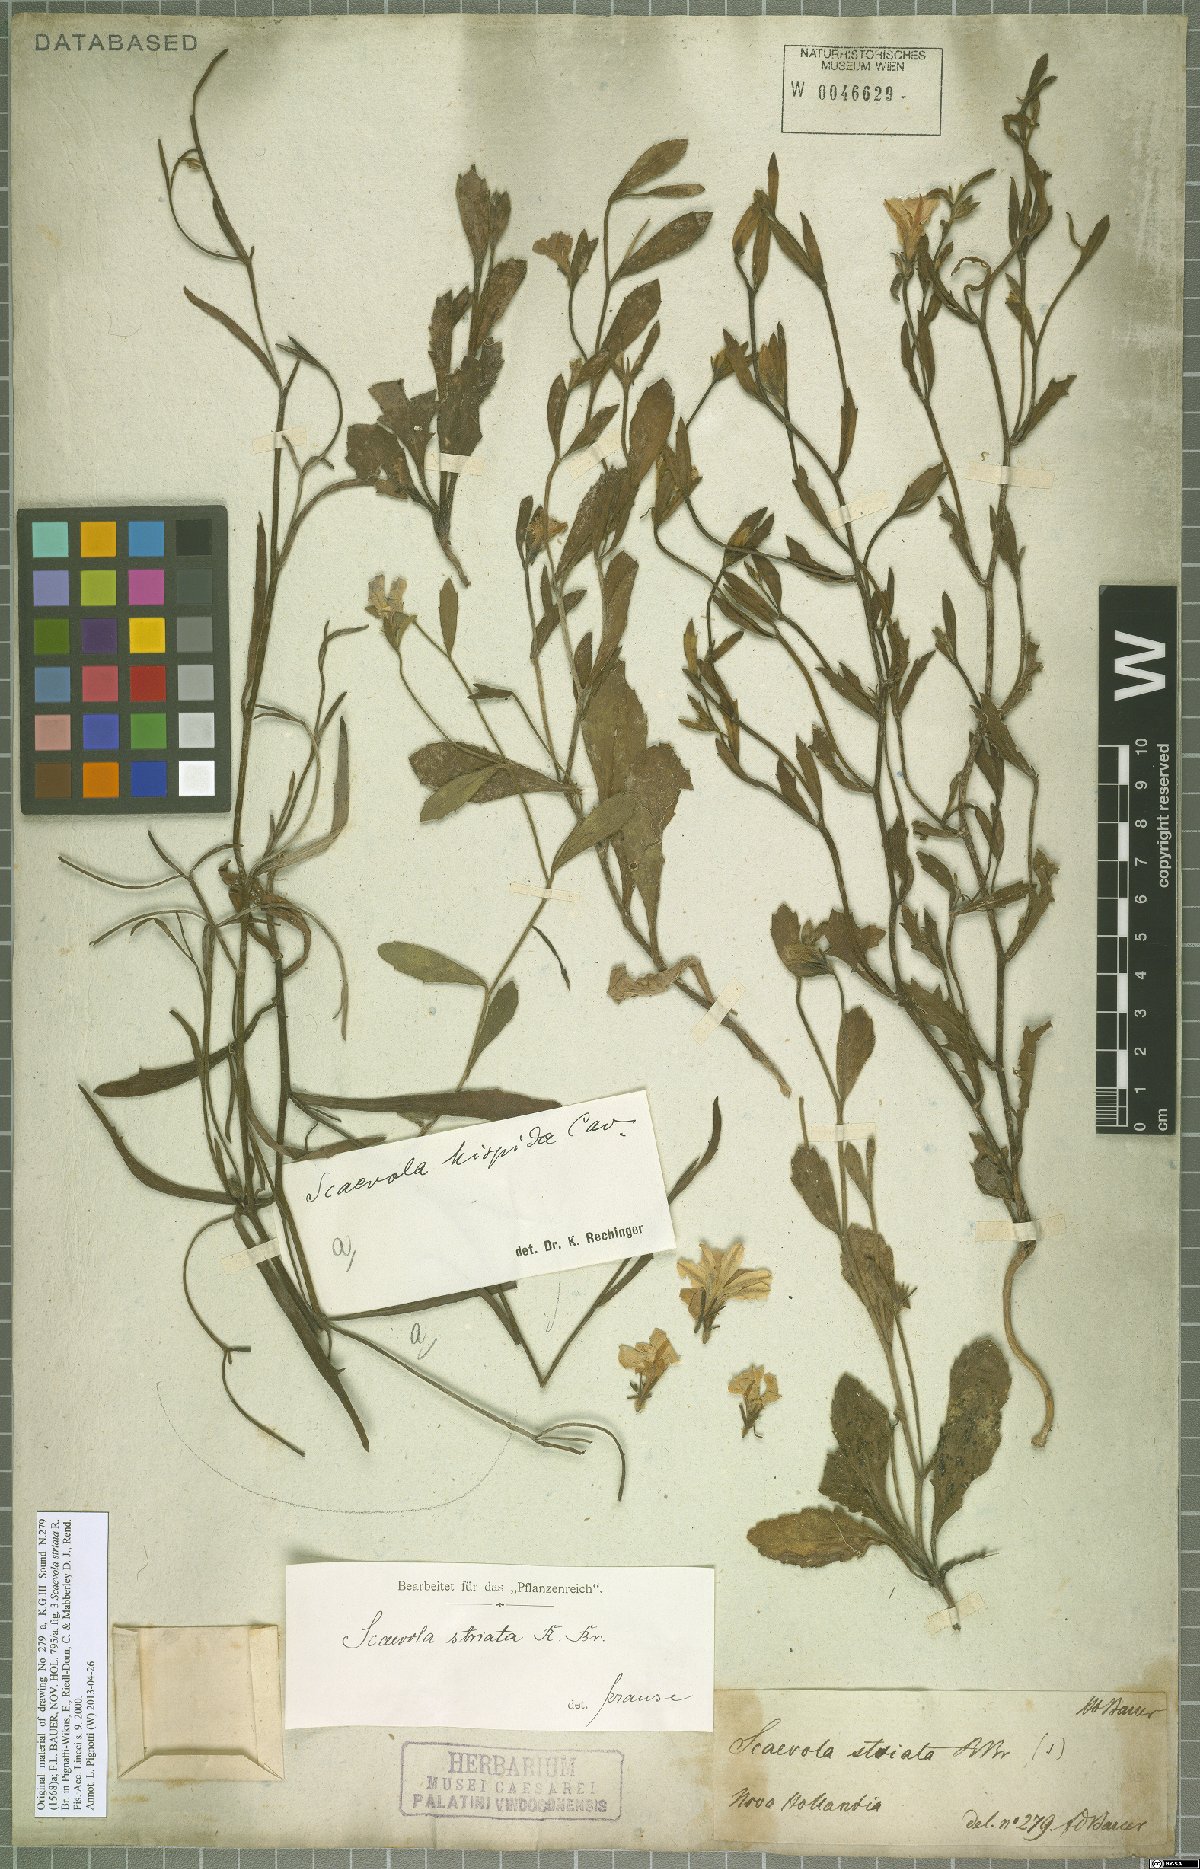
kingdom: Plantae
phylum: Tracheophyta
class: Magnoliopsida
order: Asterales
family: Goodeniaceae
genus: Scaevola
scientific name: Scaevola striata
